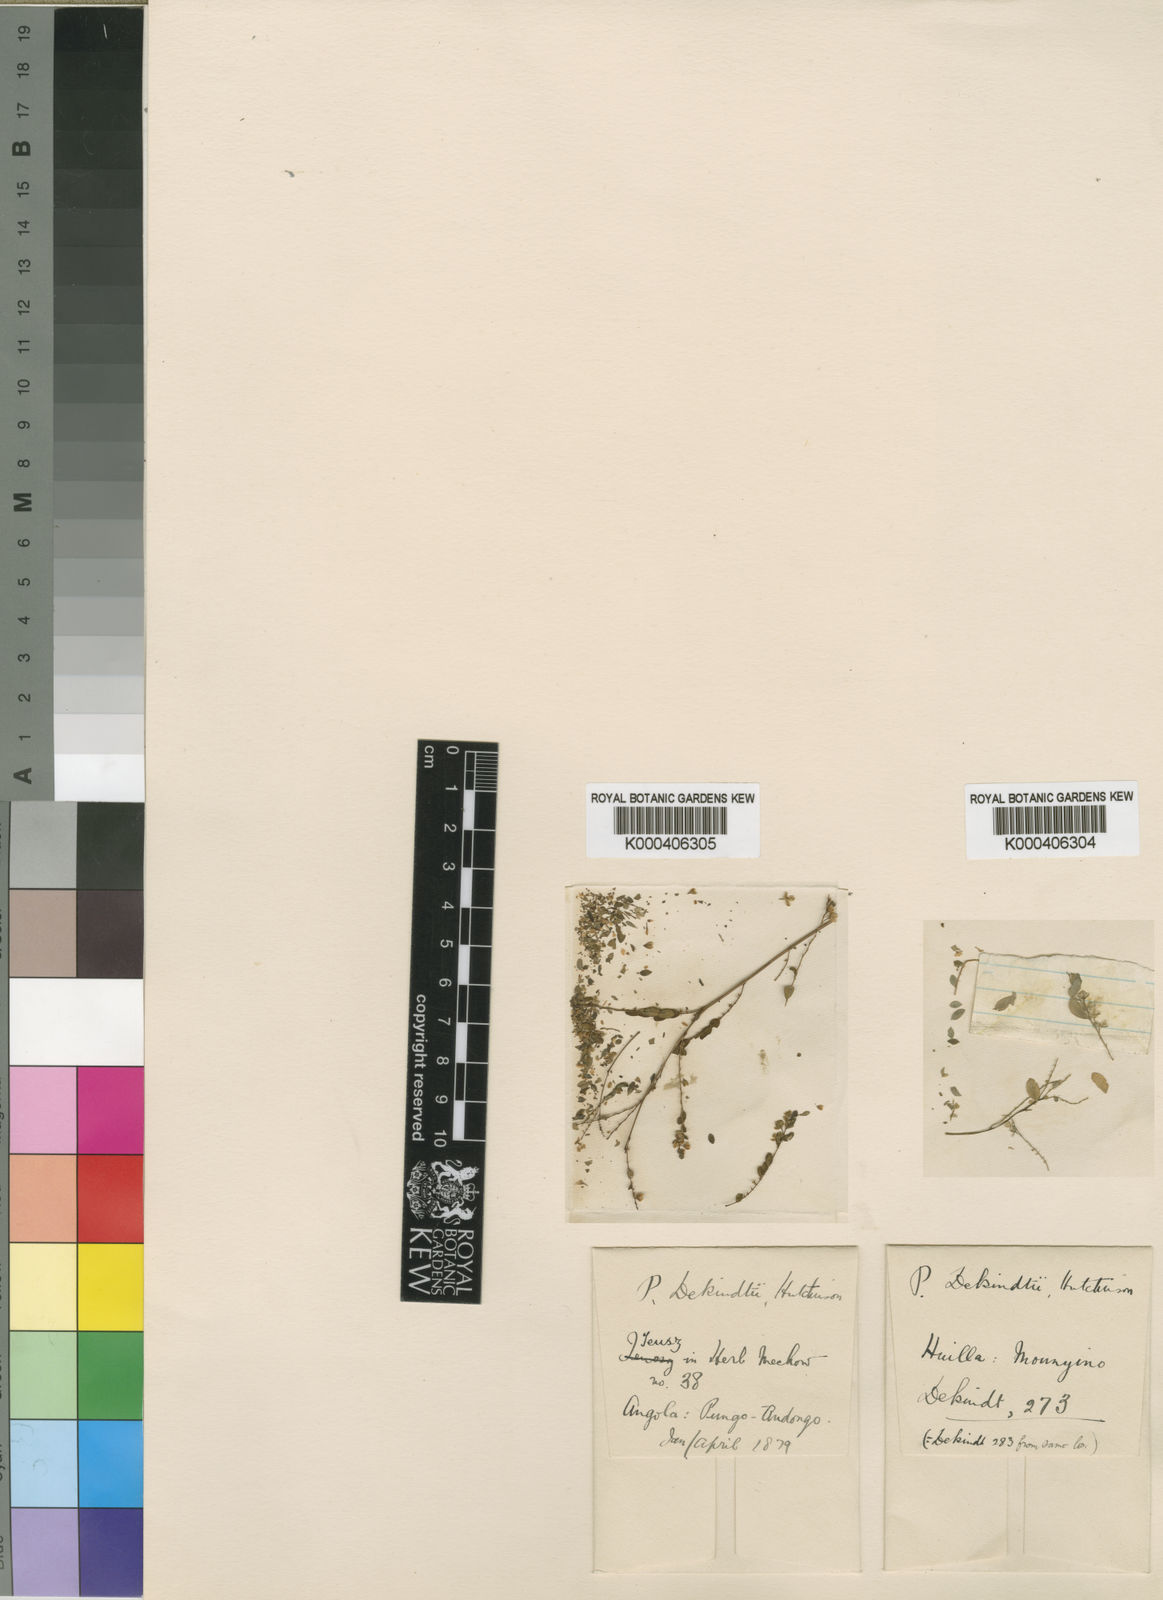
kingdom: Plantae
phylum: Tracheophyta
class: Magnoliopsida
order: Malpighiales
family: Phyllanthaceae
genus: Phyllanthus
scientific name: Phyllanthus niruroides
